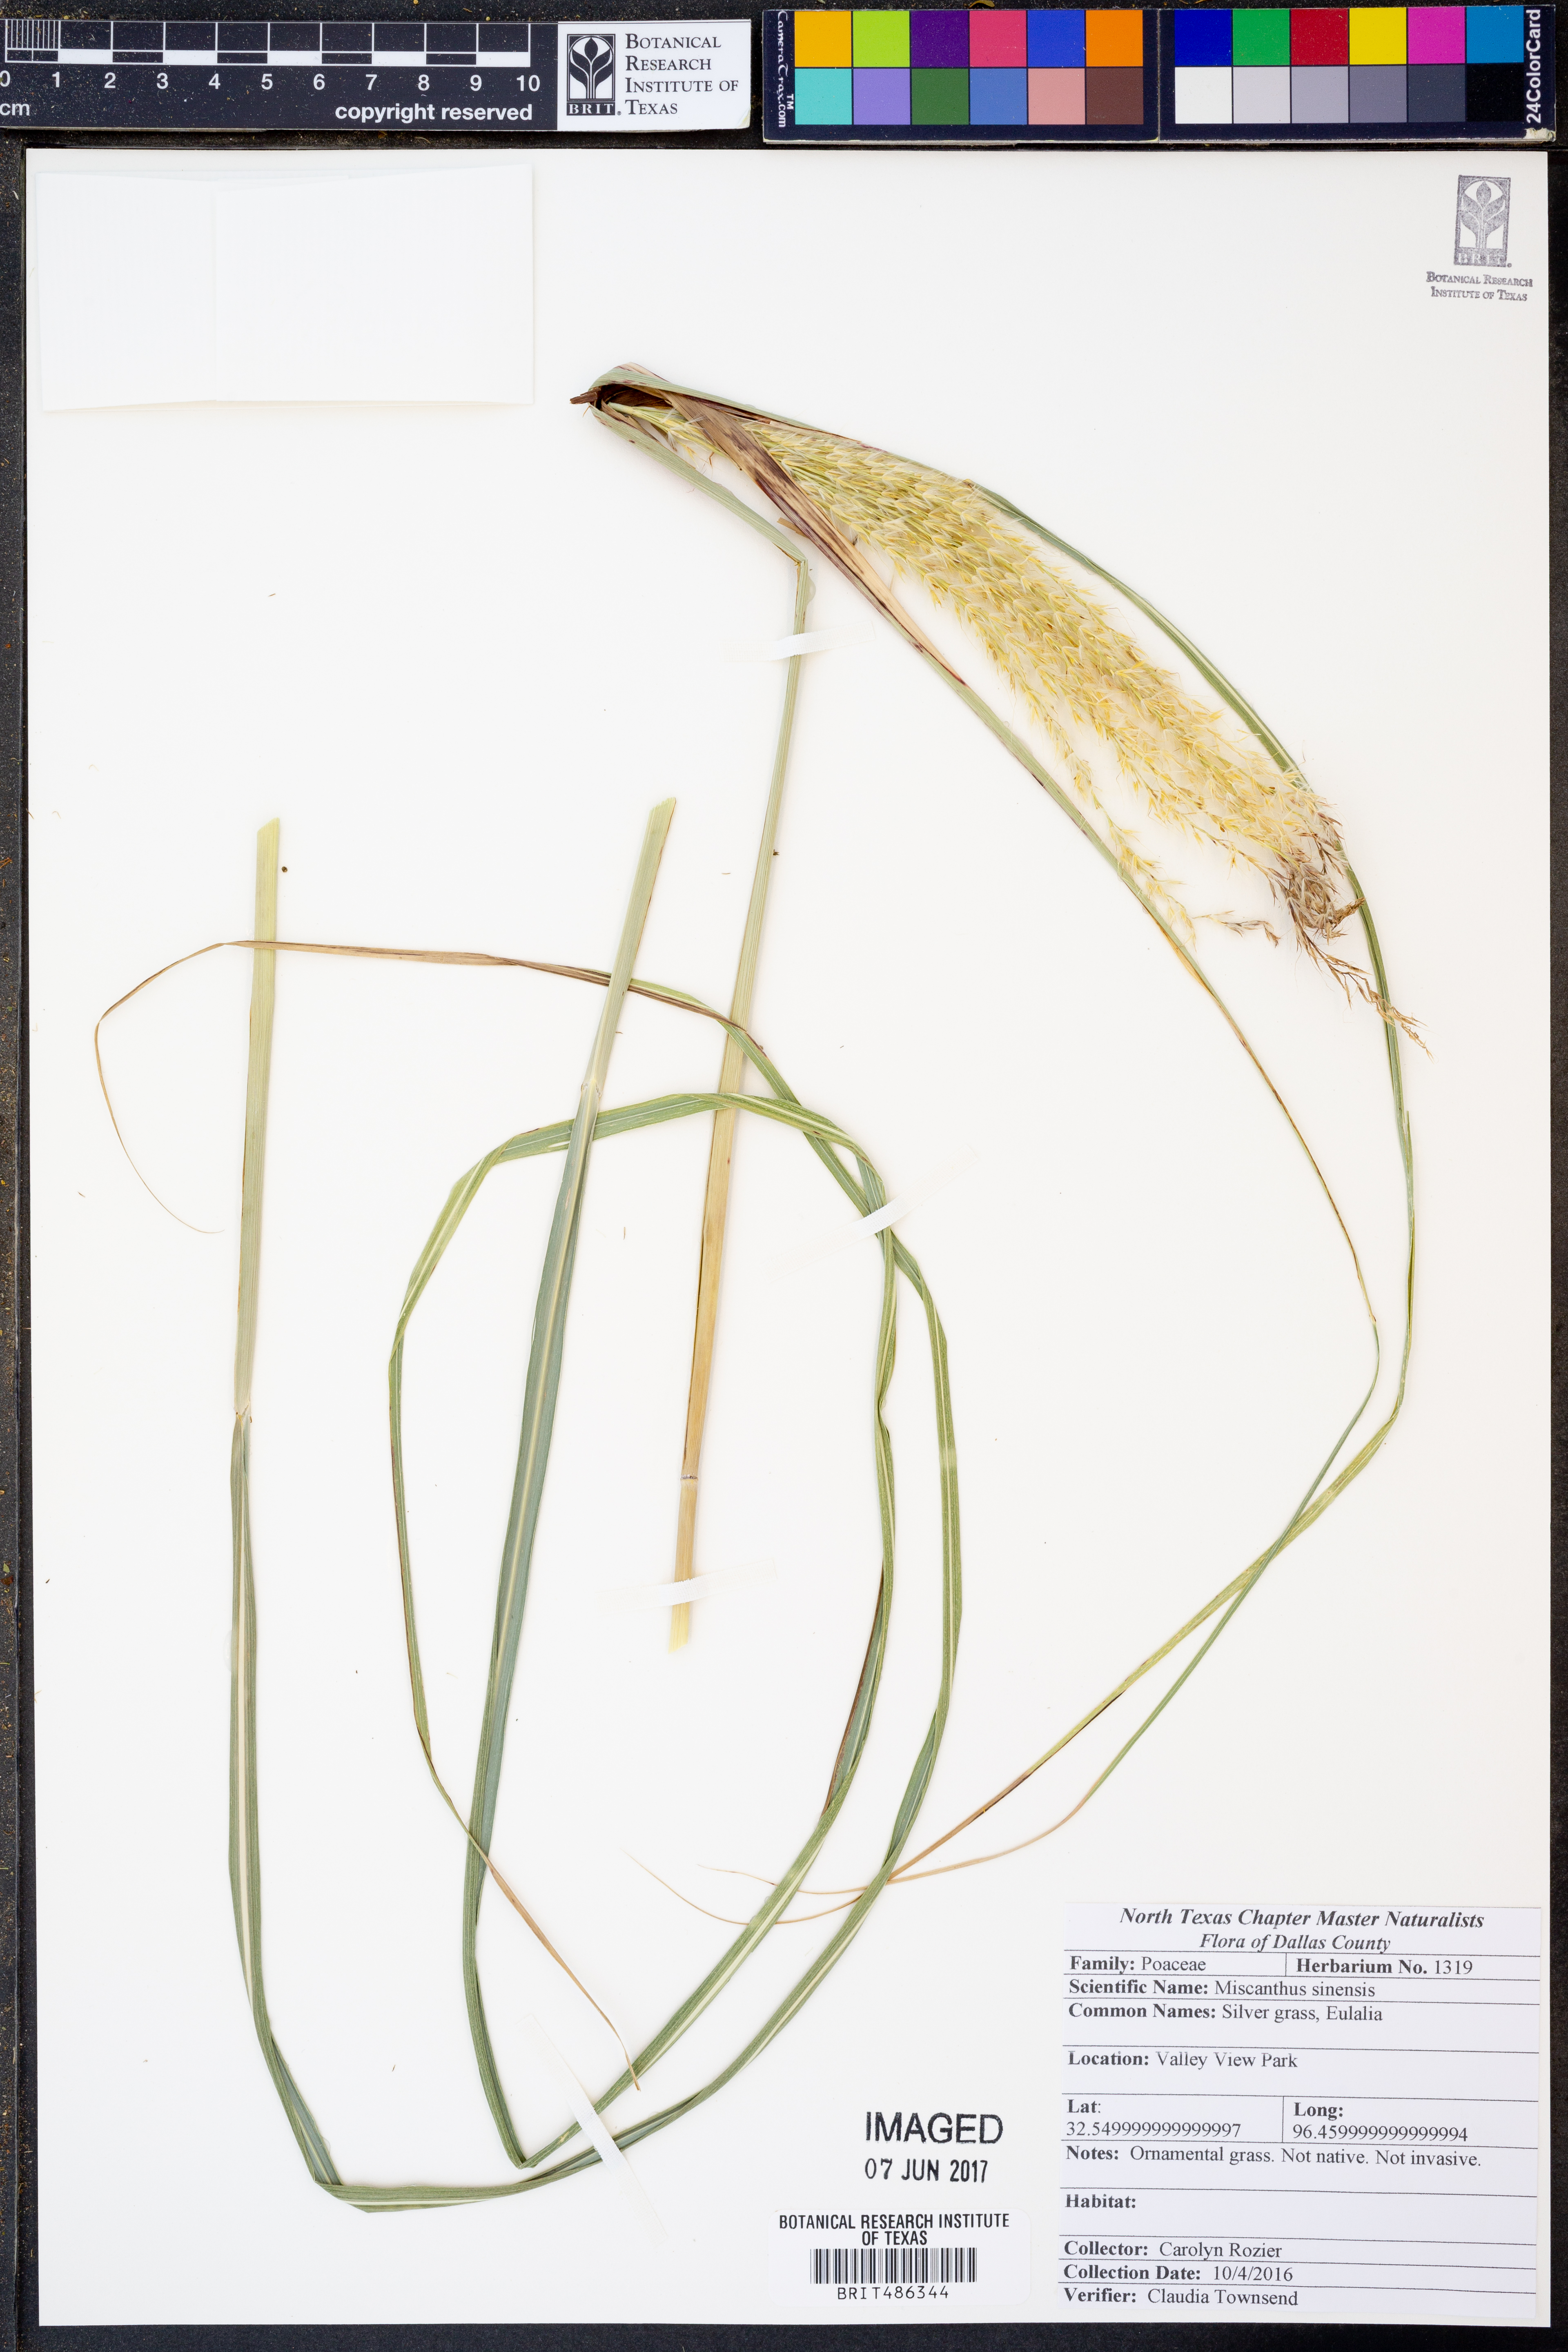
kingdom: Plantae
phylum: Tracheophyta
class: Liliopsida
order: Poales
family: Poaceae
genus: Miscanthus
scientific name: Miscanthus sinensis
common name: Chinese silvergrass
